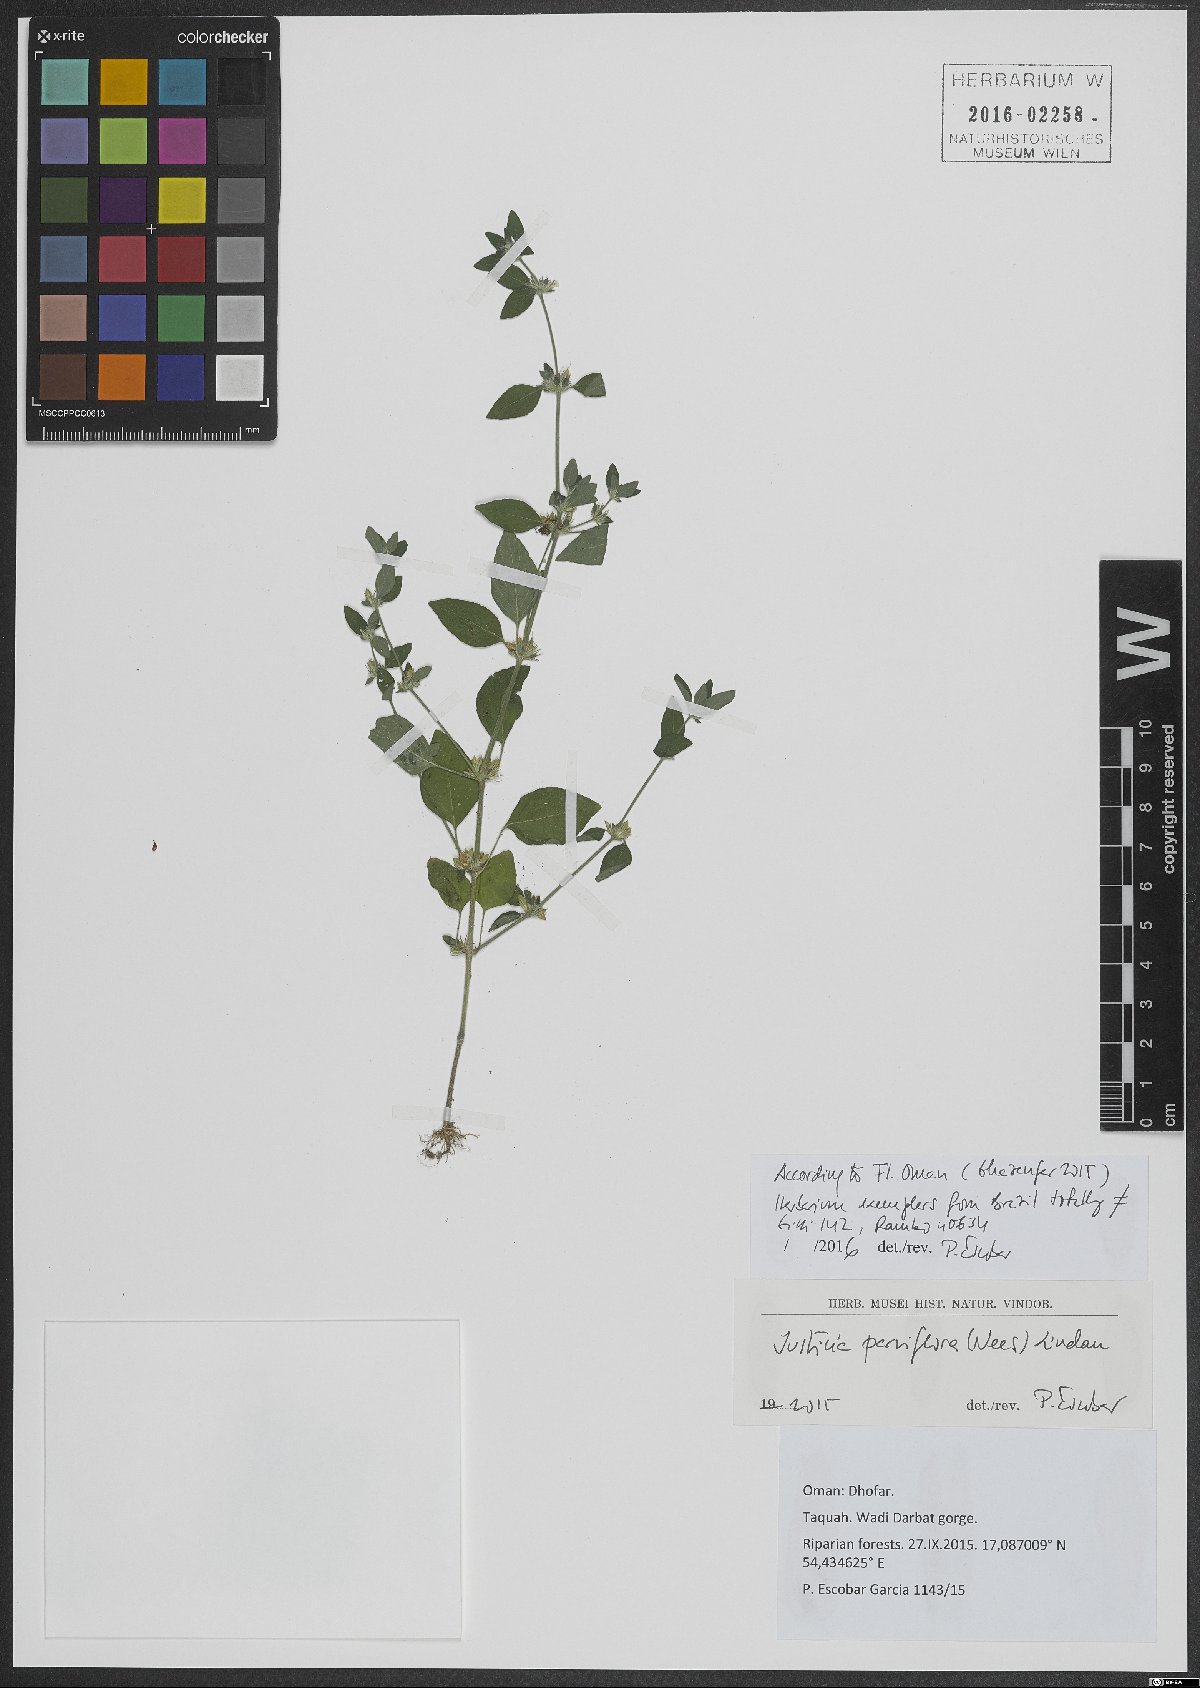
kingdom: Plantae
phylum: Tracheophyta
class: Magnoliopsida
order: Lamiales
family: Acanthaceae
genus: Rungia
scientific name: Rungia parviflora
